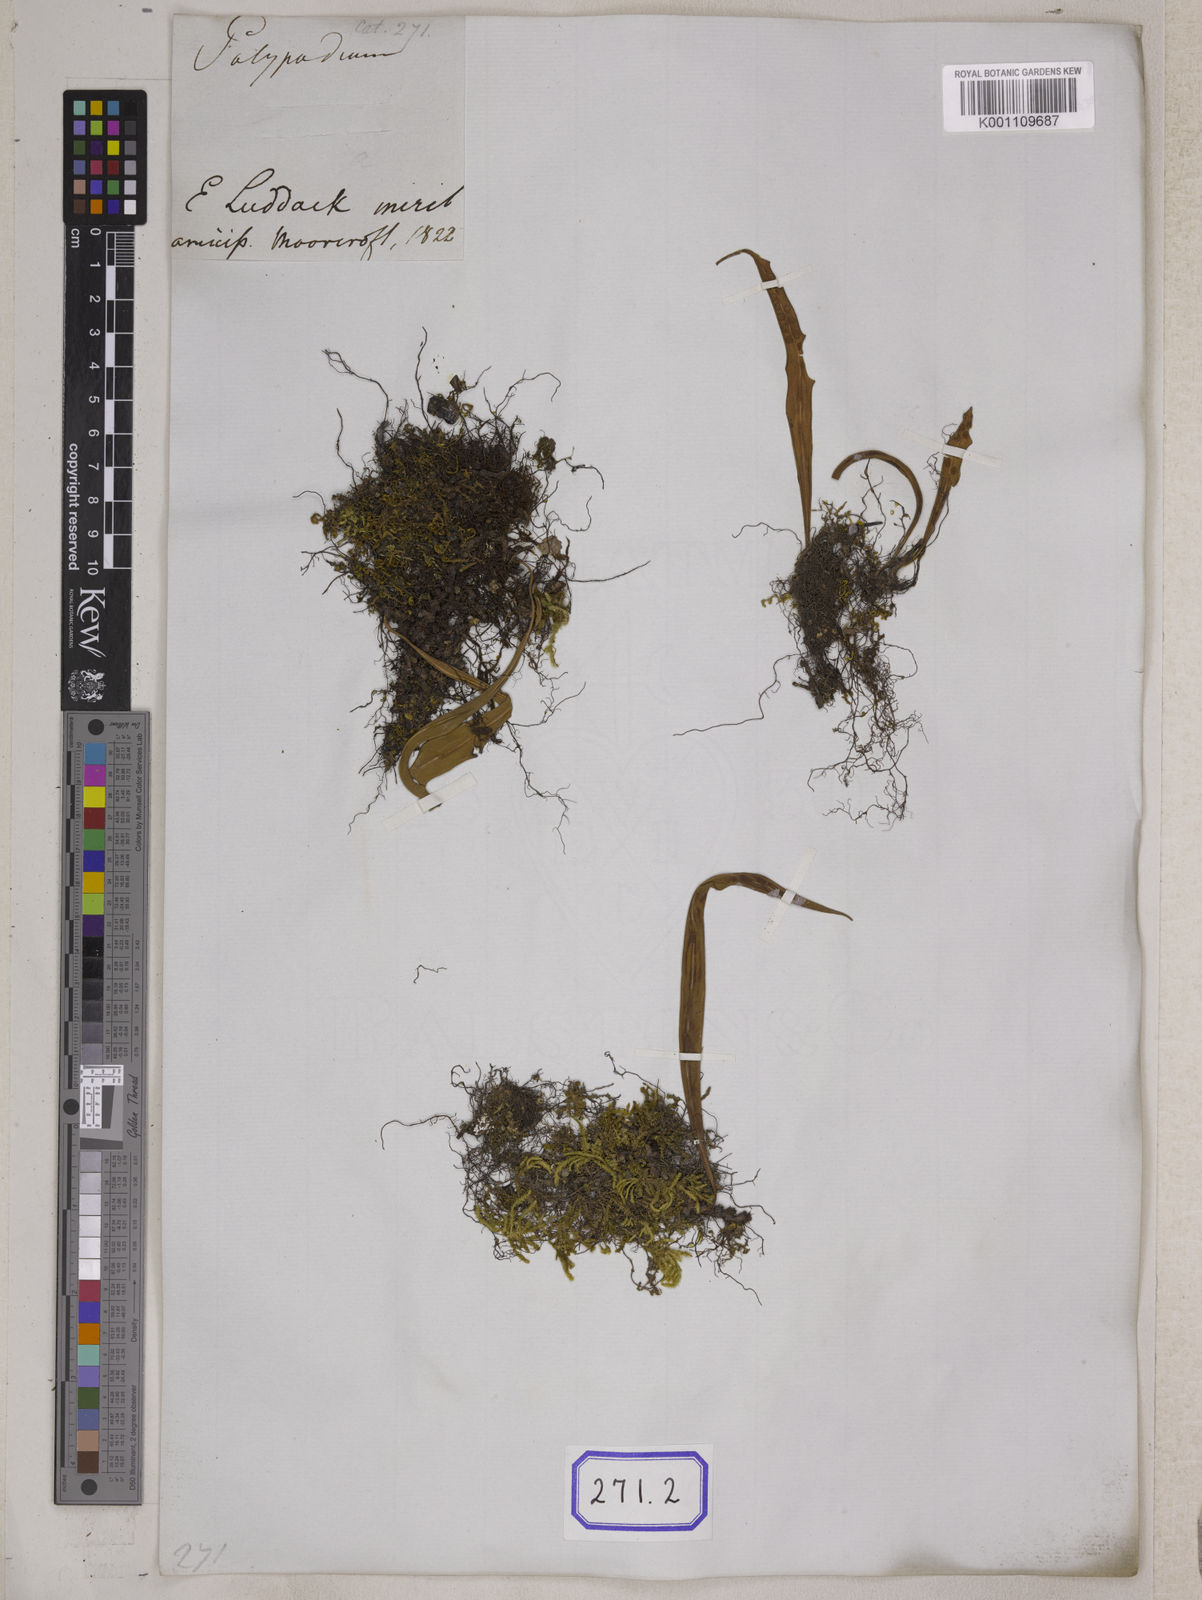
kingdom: Plantae
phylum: Tracheophyta
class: Polypodiopsida
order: Polypodiales
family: Polypodiaceae
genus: Lepisorus
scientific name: Lepisorus loriformis
